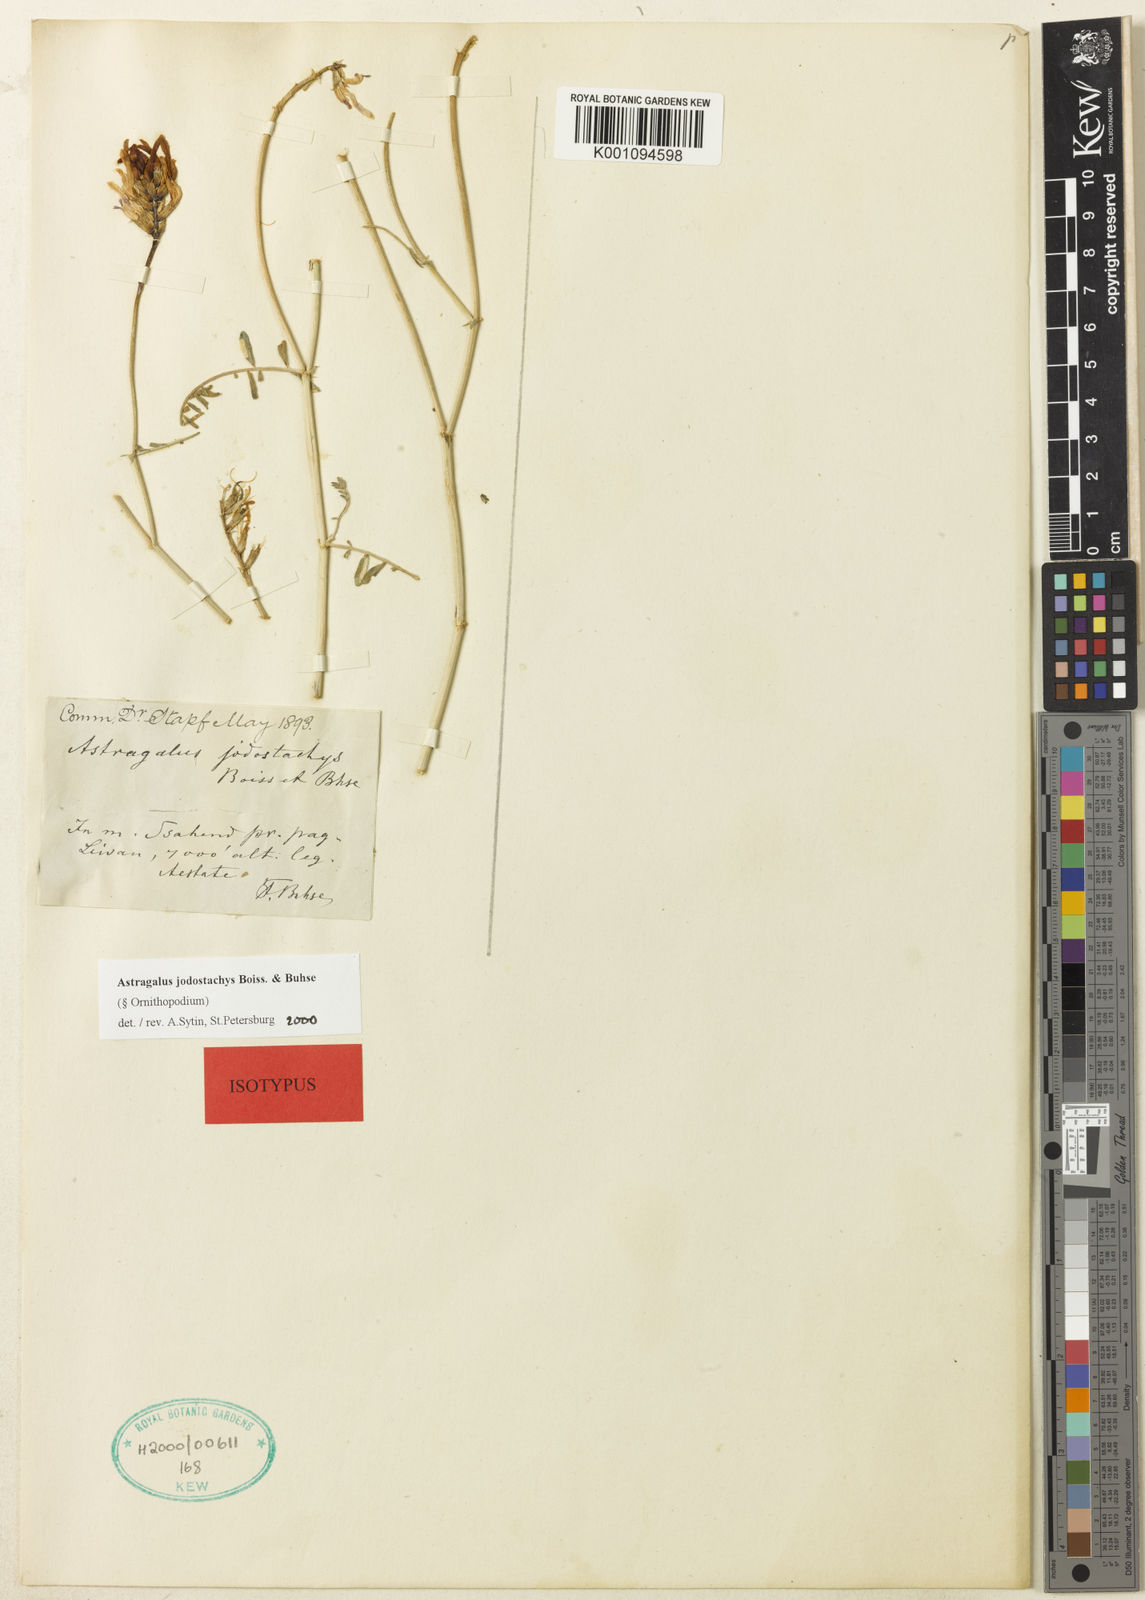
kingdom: Plantae
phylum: Tracheophyta
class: Magnoliopsida
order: Fabales
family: Fabaceae
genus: Astragalus
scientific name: Astragalus
